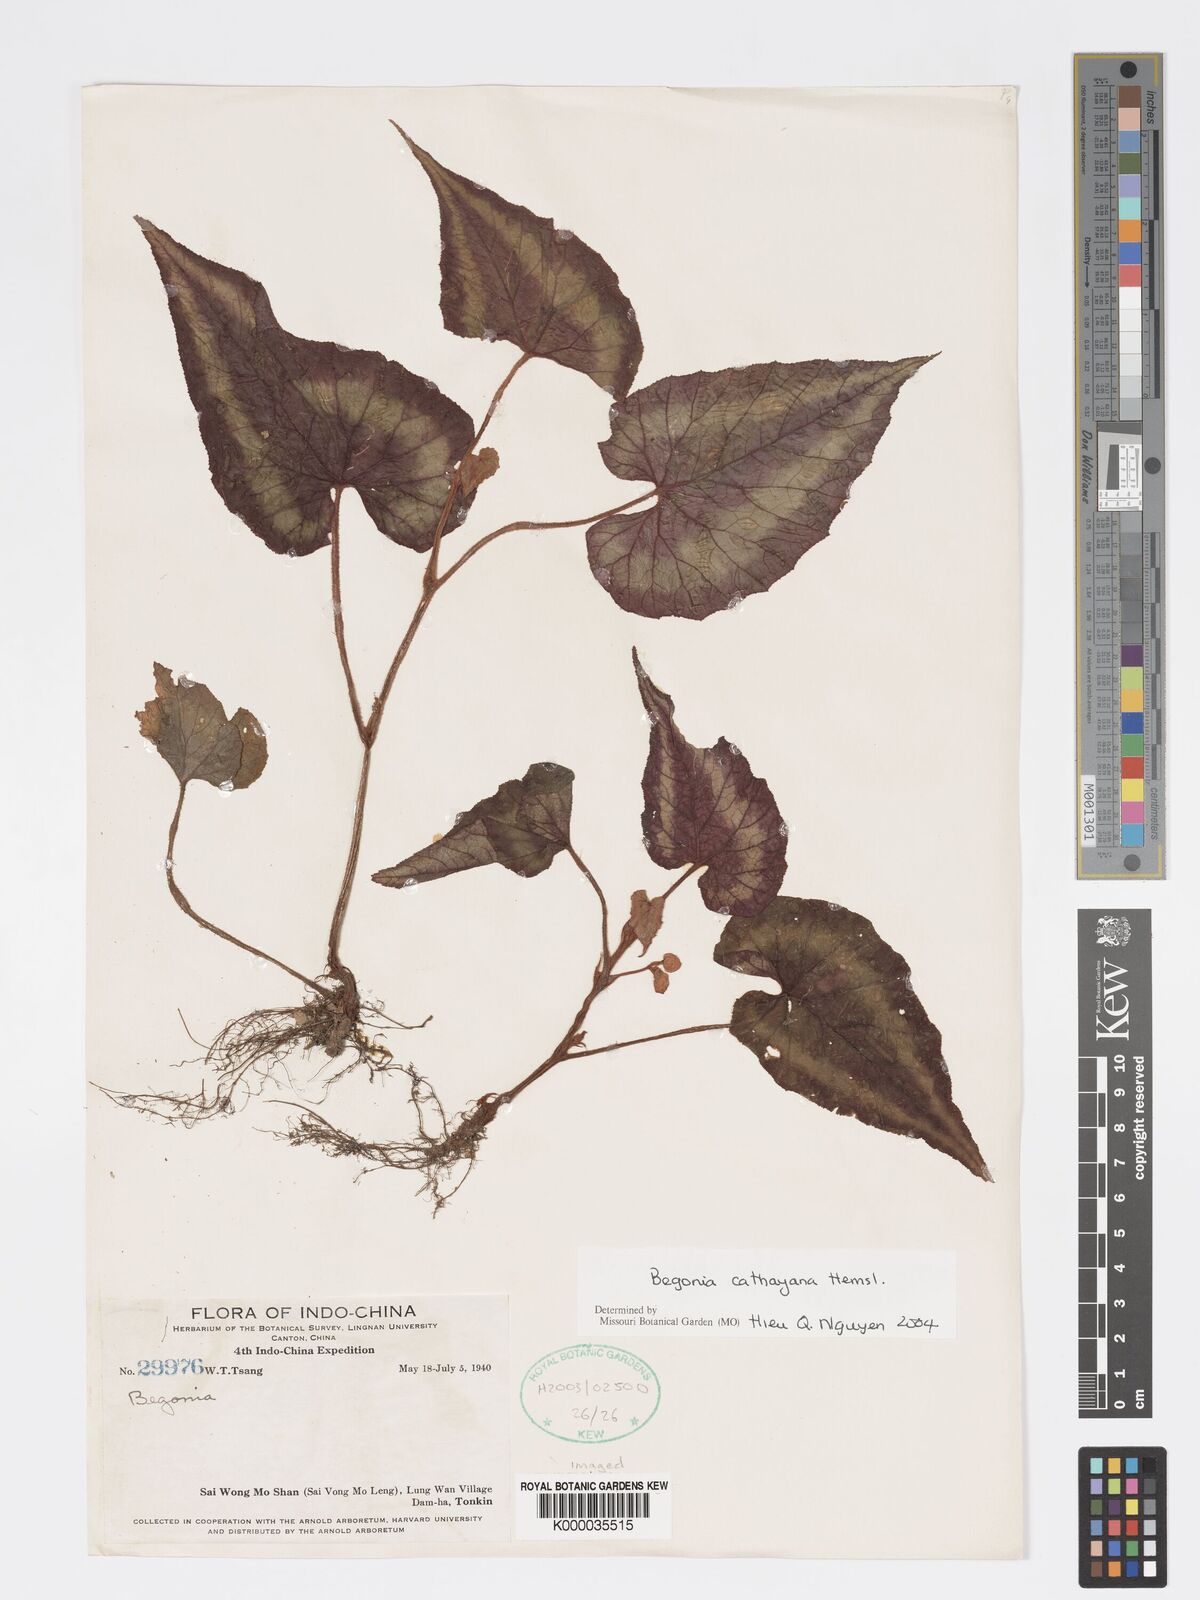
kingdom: Plantae
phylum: Tracheophyta
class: Magnoliopsida
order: Cucurbitales
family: Begoniaceae
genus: Begonia
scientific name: Begonia
